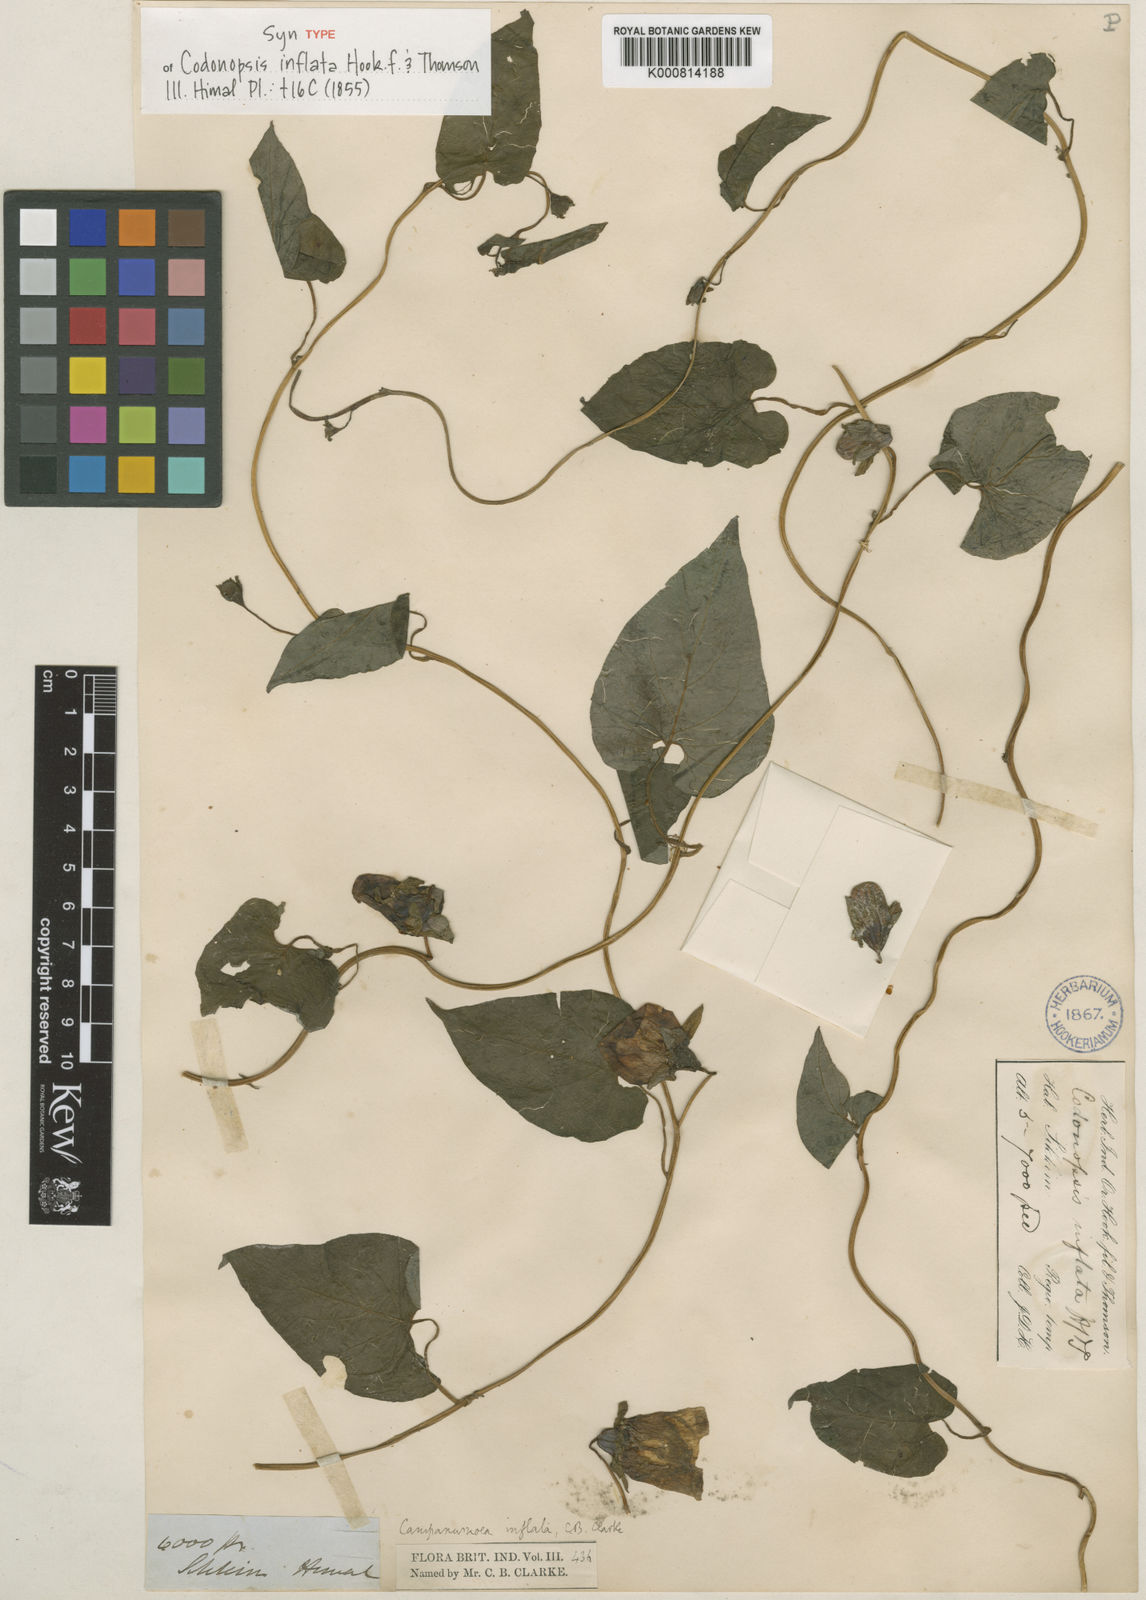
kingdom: Plantae
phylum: Tracheophyta
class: Magnoliopsida
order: Asterales
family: Campanulaceae
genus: Codonopsis
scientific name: Codonopsis inflata
